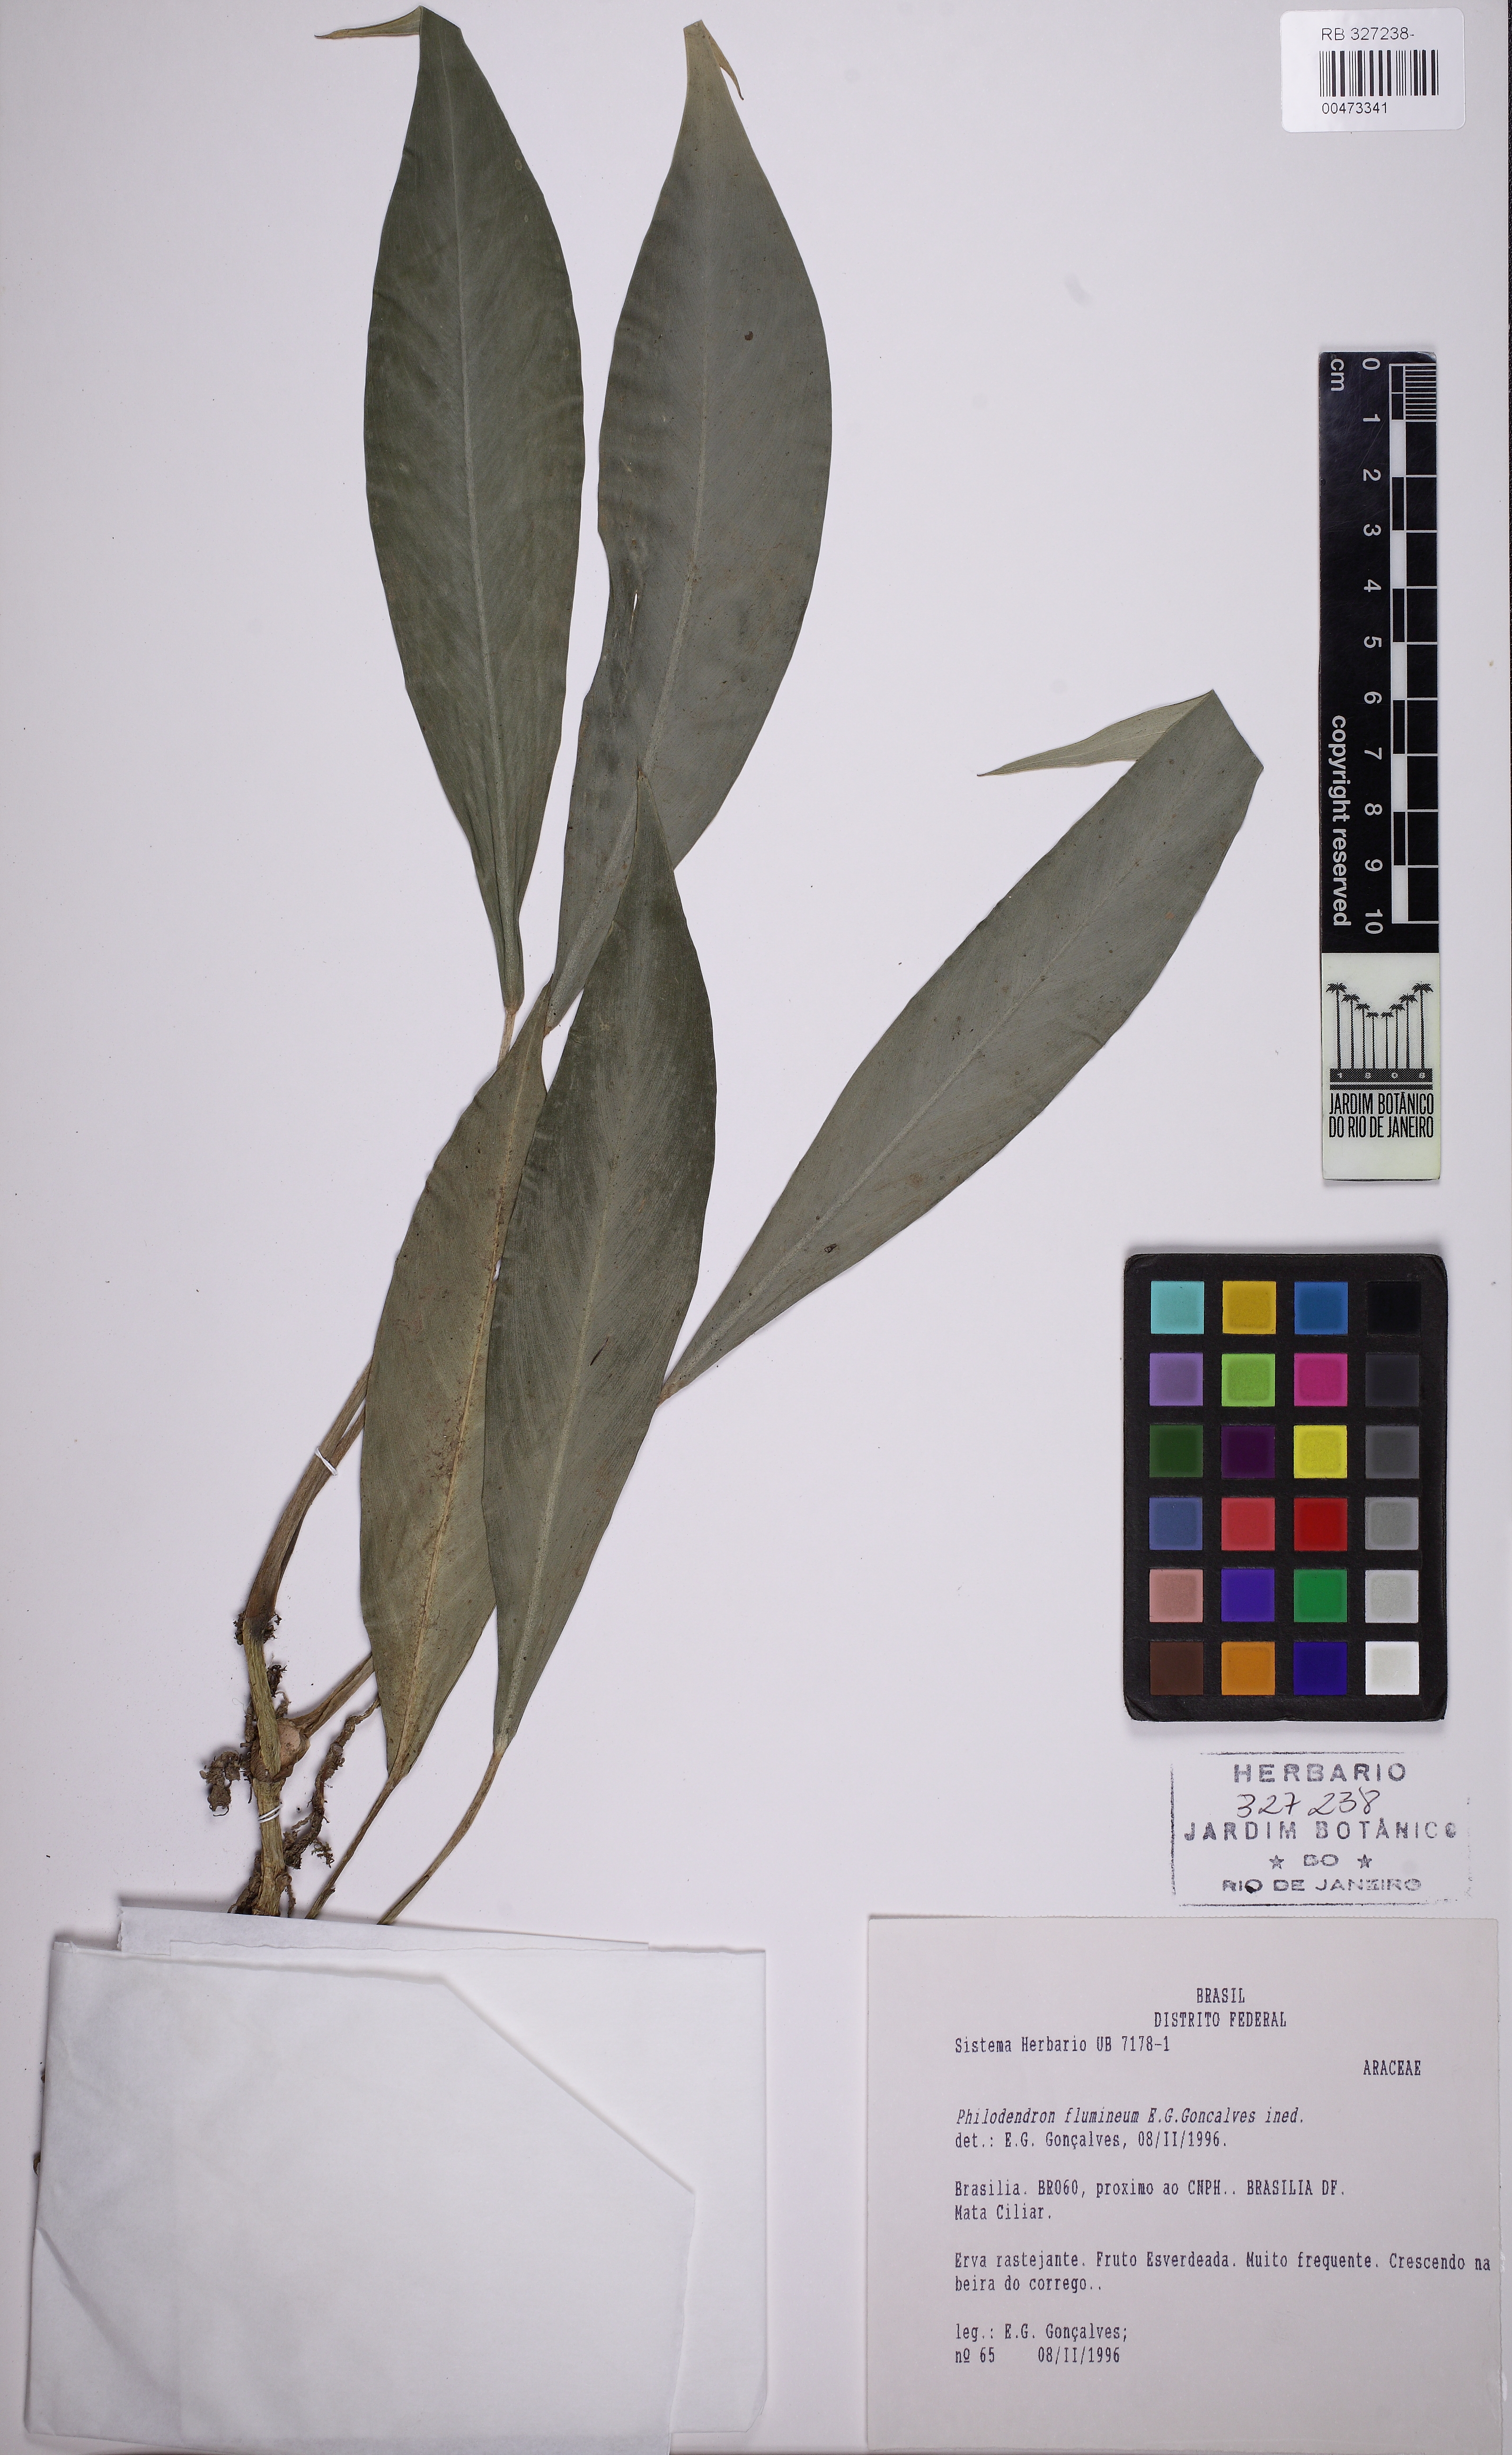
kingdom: Plantae
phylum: Tracheophyta
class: Liliopsida
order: Alismatales
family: Araceae
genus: Philodendron
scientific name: Philodendron flumineum
